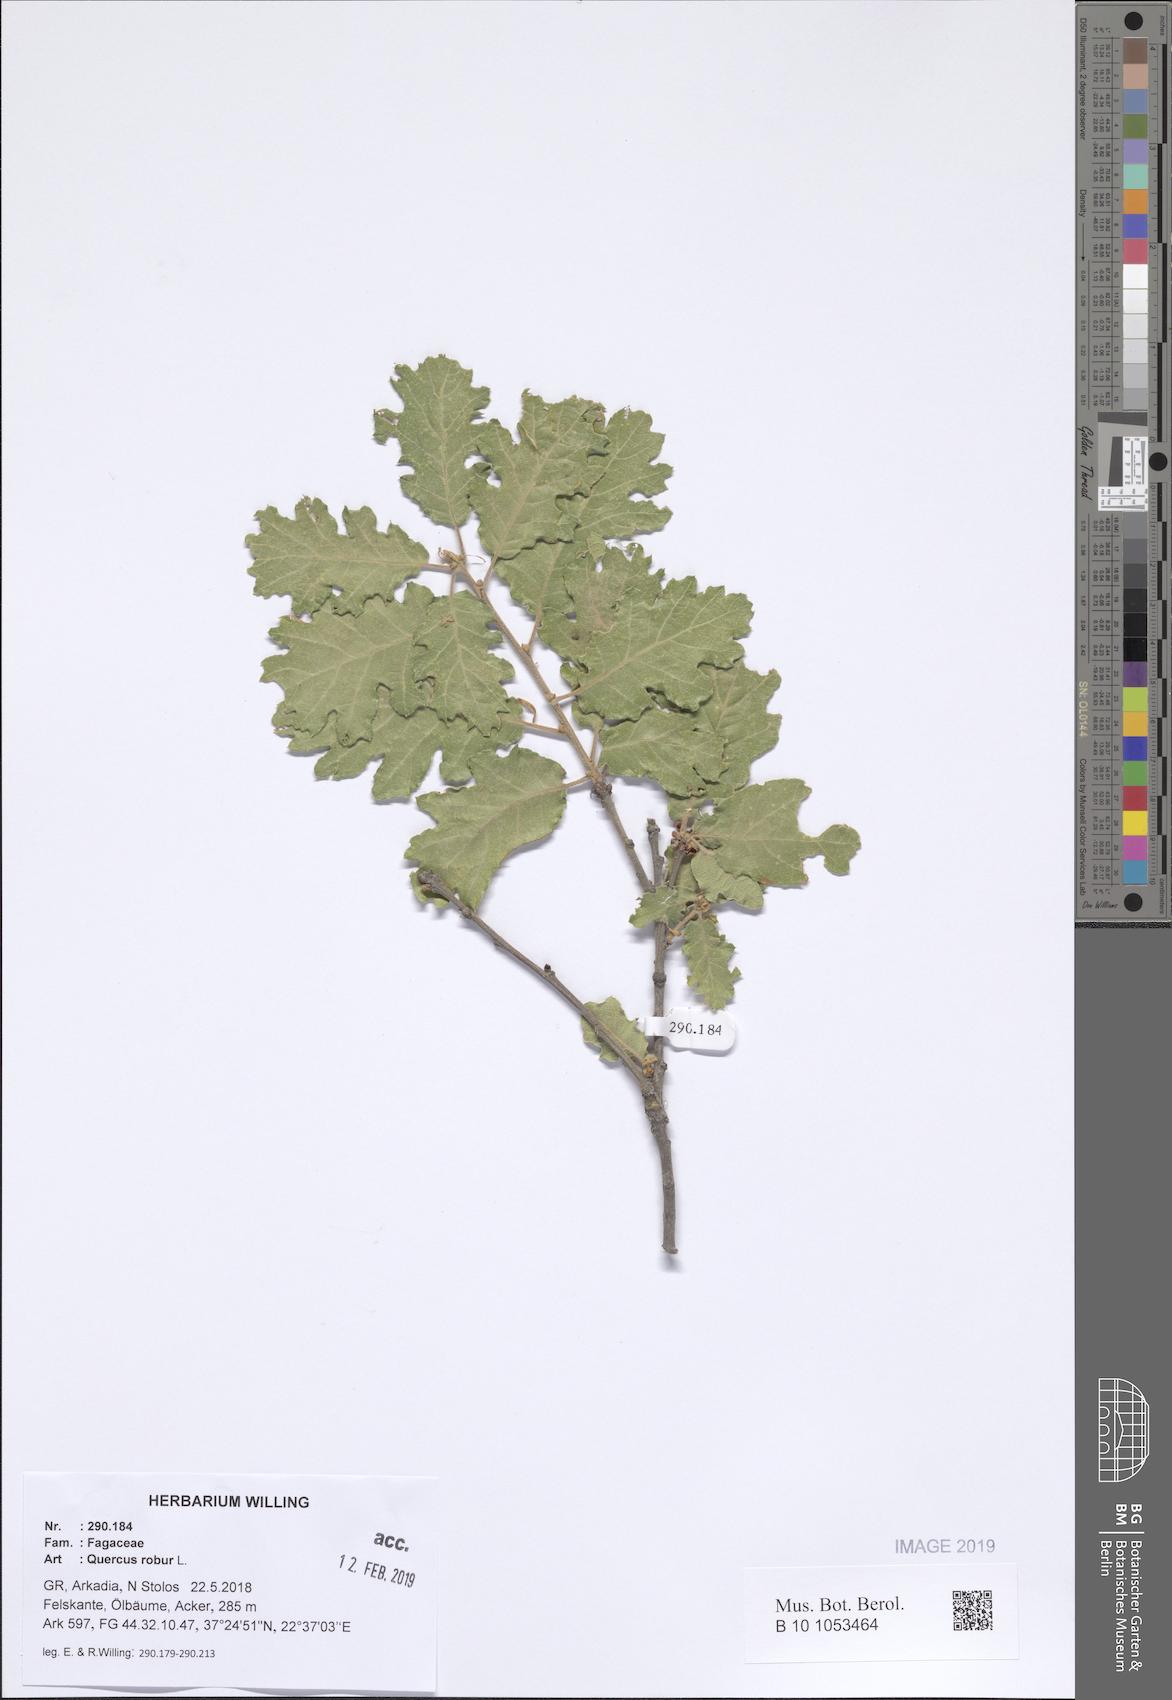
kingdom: Plantae
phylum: Tracheophyta
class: Magnoliopsida
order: Fagales
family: Fagaceae
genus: Quercus
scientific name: Quercus robur
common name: Pedunculate oak
